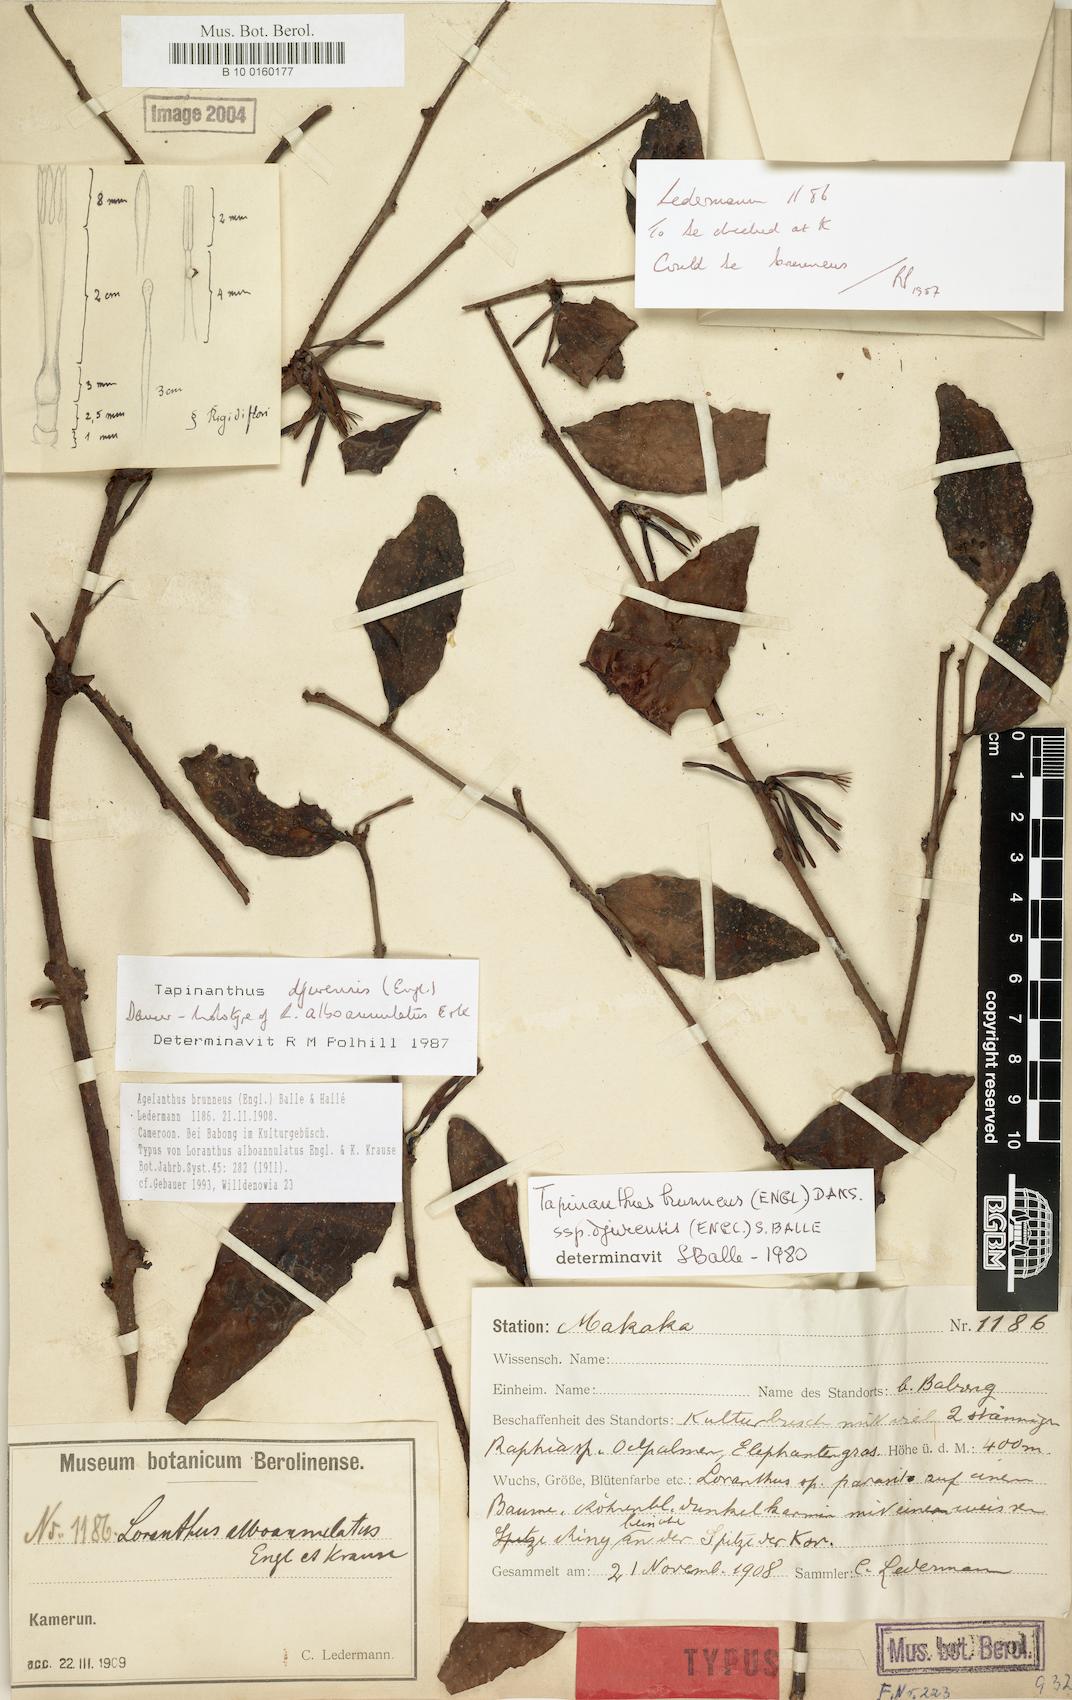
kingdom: Plantae
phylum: Tracheophyta
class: Magnoliopsida
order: Santalales
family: Loranthaceae
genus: Agelanthus
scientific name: Agelanthus brunneus
